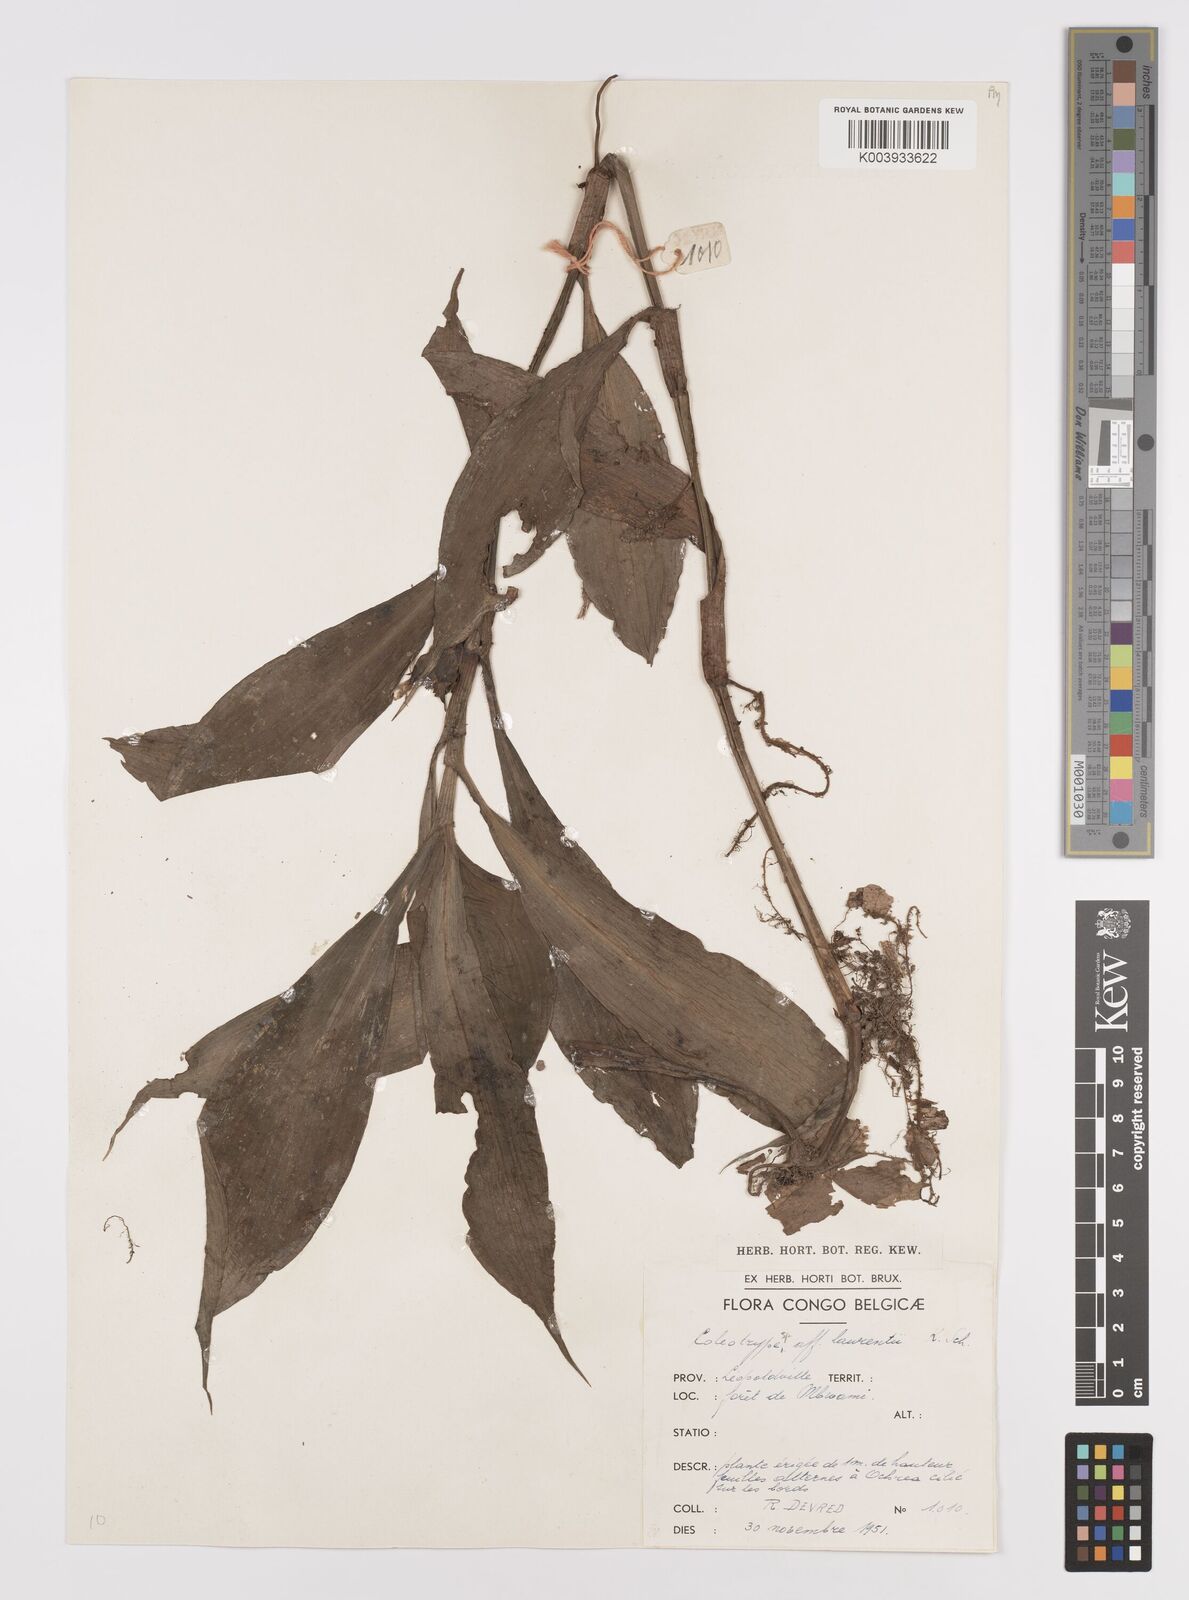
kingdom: Plantae
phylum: Tracheophyta
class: Liliopsida
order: Commelinales
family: Commelinaceae
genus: Coleotrype
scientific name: Coleotrype laurentii
